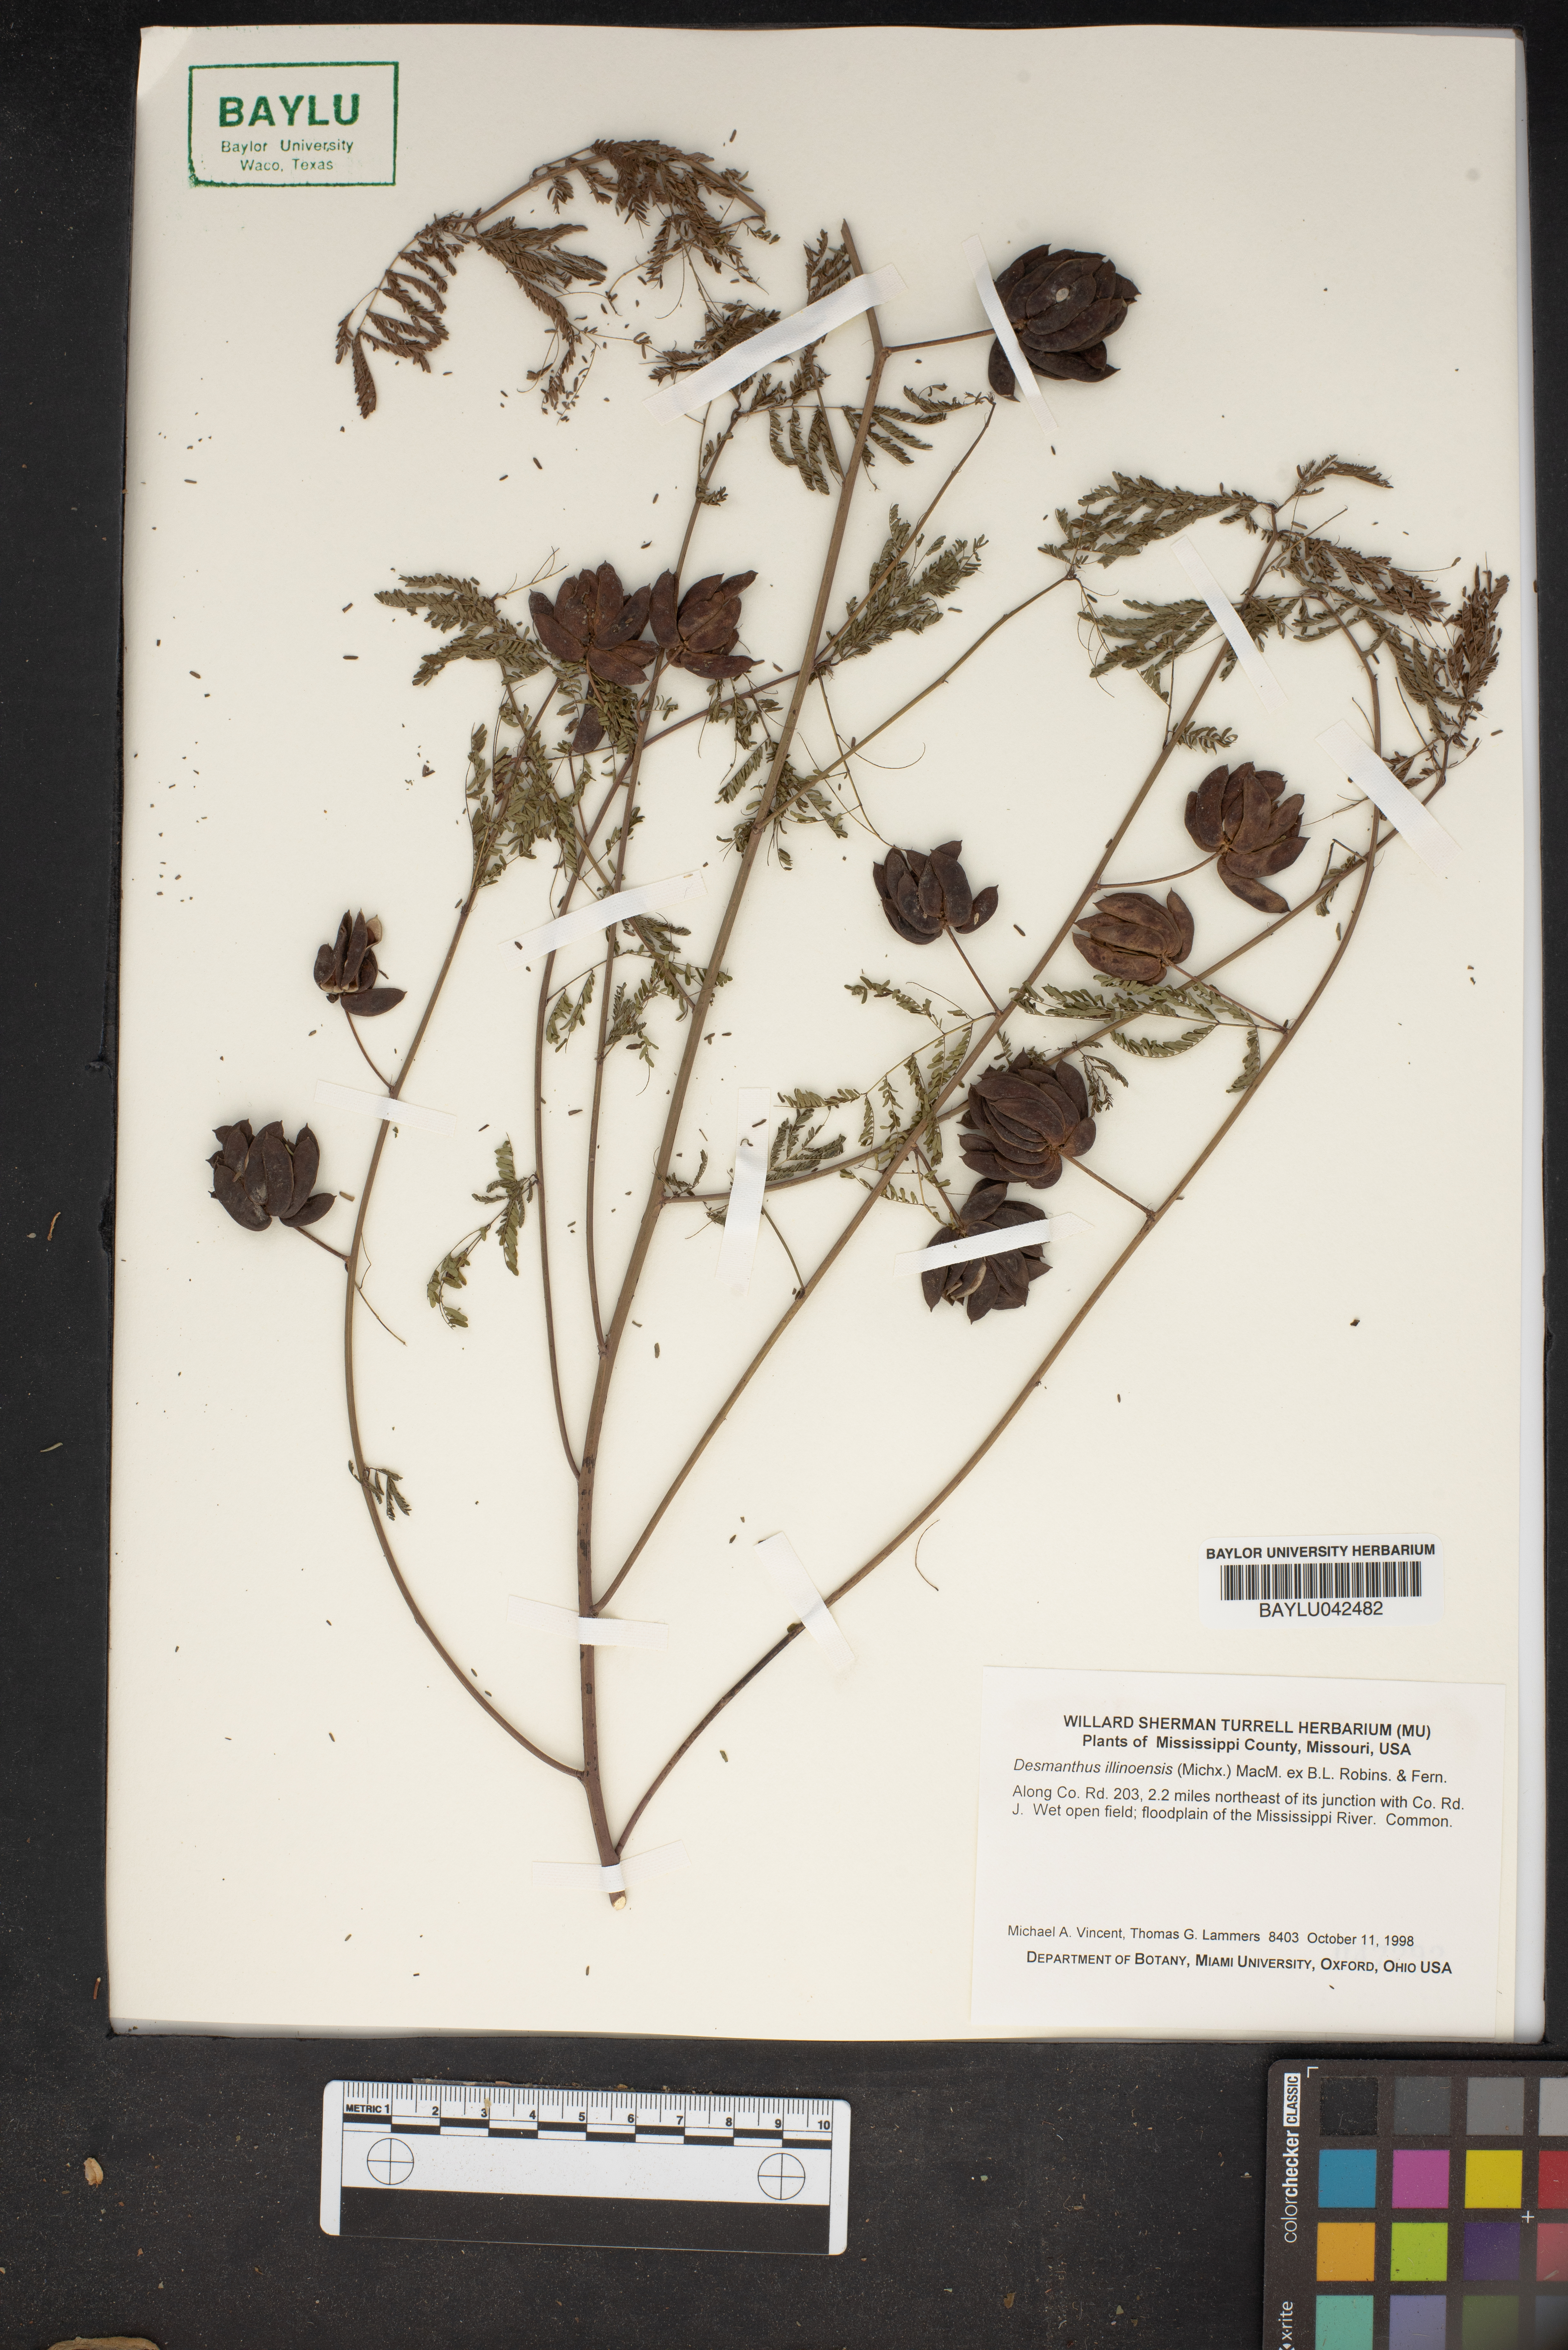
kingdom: Plantae
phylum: Tracheophyta
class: Magnoliopsida
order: Fabales
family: Fabaceae
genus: Desmanthus
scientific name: Desmanthus illinoensis
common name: Illinois bundle-flower
